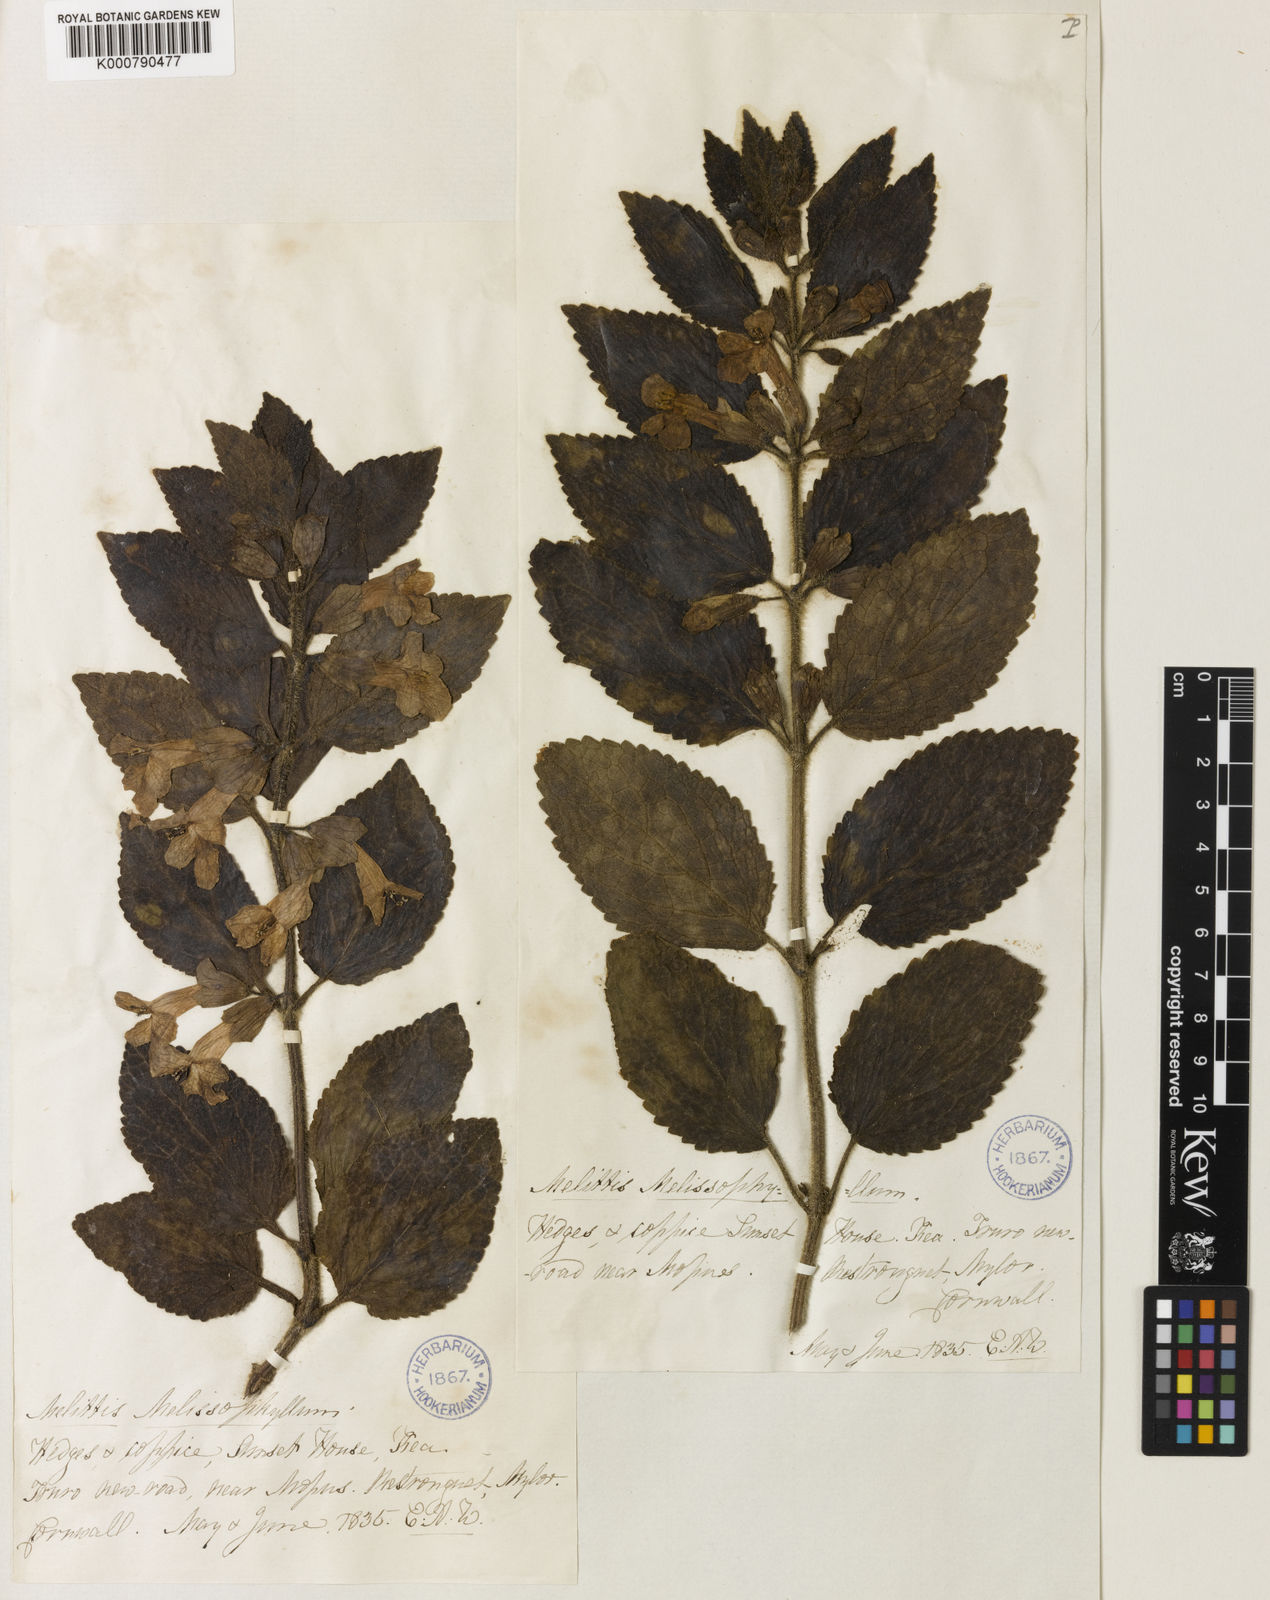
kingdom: Plantae
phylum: Tracheophyta
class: Magnoliopsida
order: Lamiales
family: Lamiaceae
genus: Melittis
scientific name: Melittis melissophyllum
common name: Bastard balm
